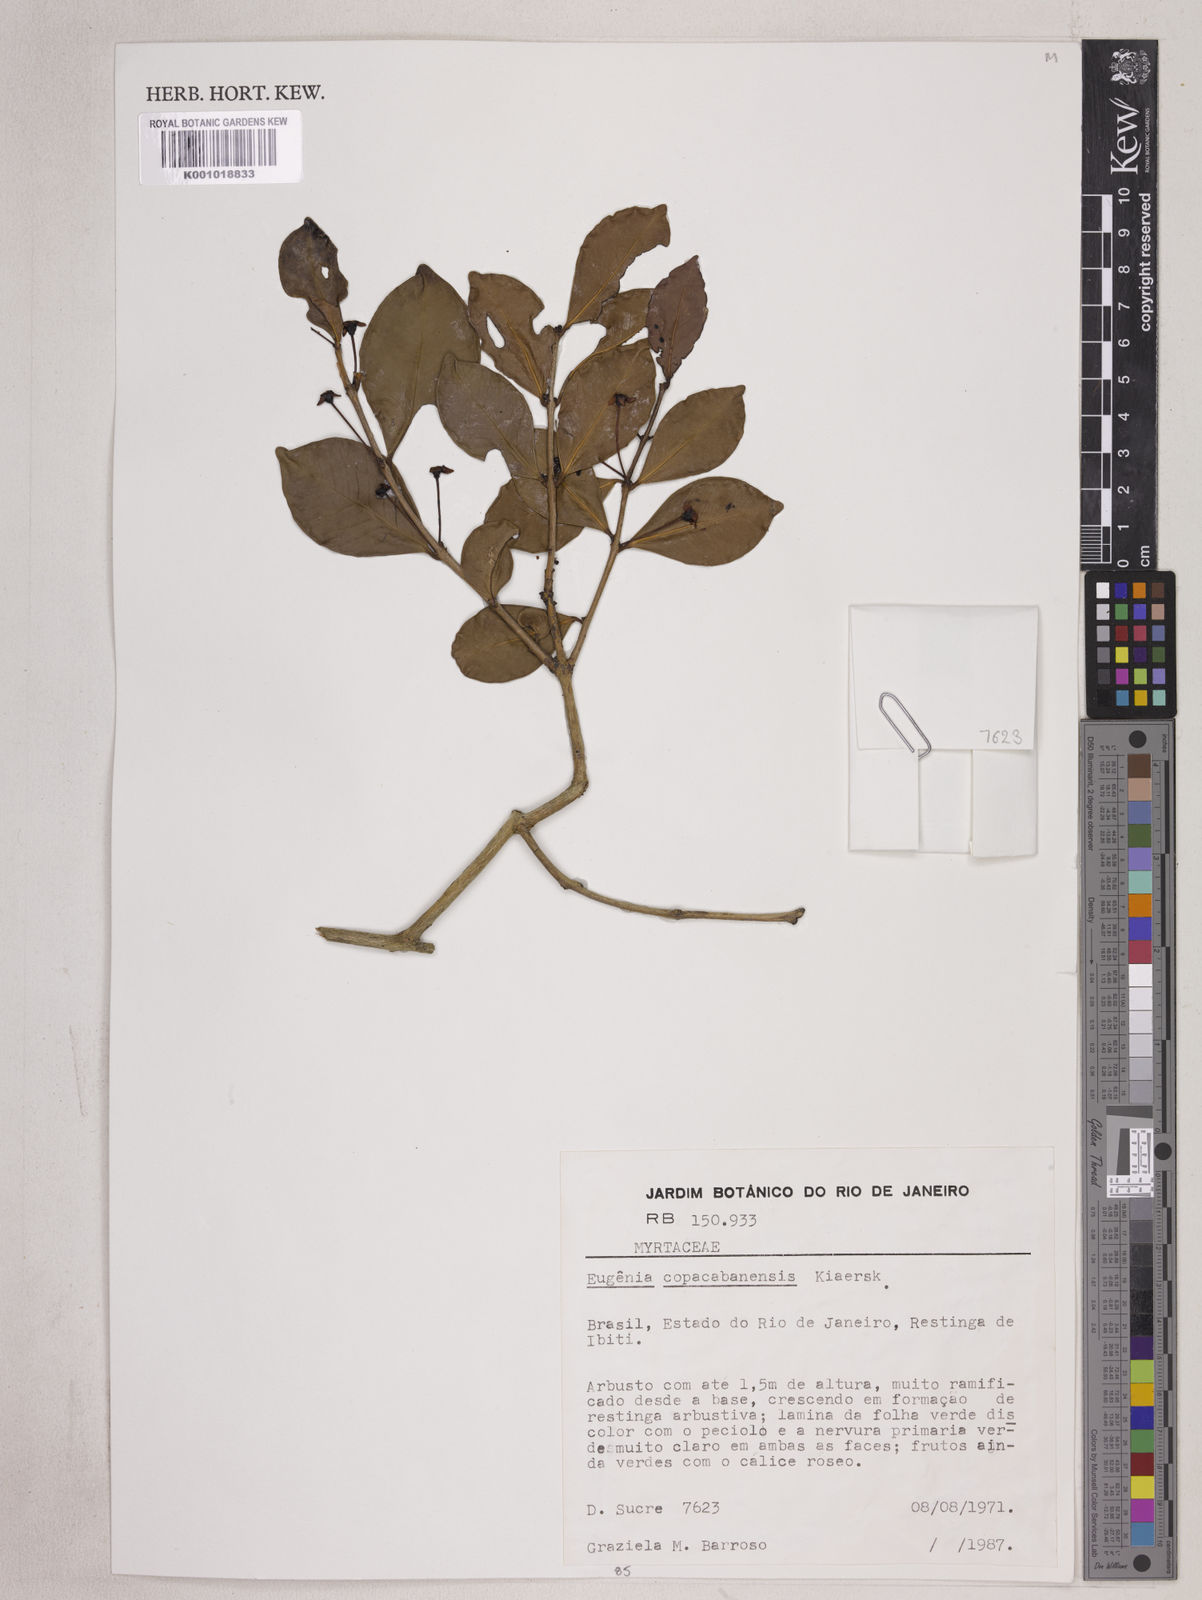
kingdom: Plantae
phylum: Tracheophyta
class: Magnoliopsida
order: Myrtales
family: Myrtaceae
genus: Eugenia
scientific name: Eugenia copacabanensis
